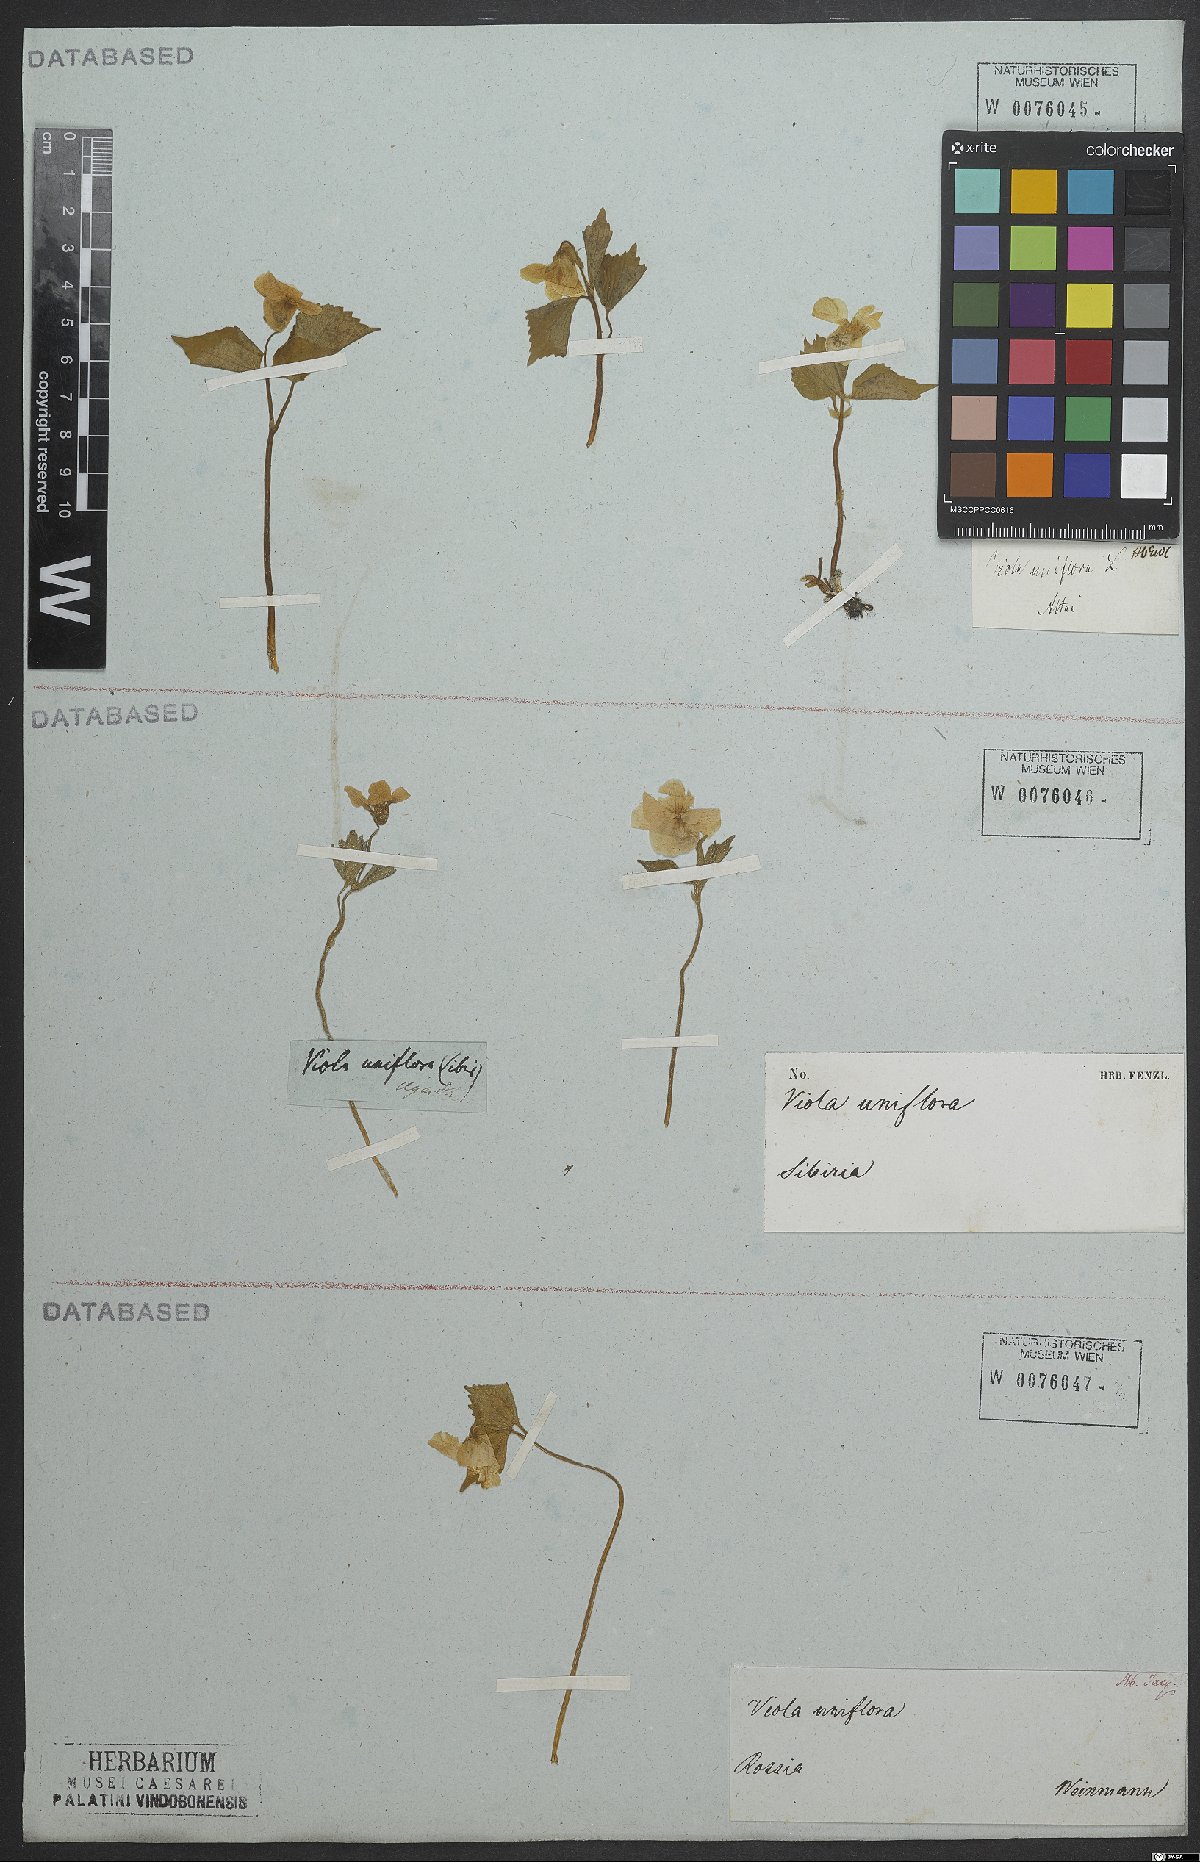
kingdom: Plantae
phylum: Tracheophyta
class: Magnoliopsida
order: Malpighiales
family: Violaceae
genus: Viola
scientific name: Viola uniflora
